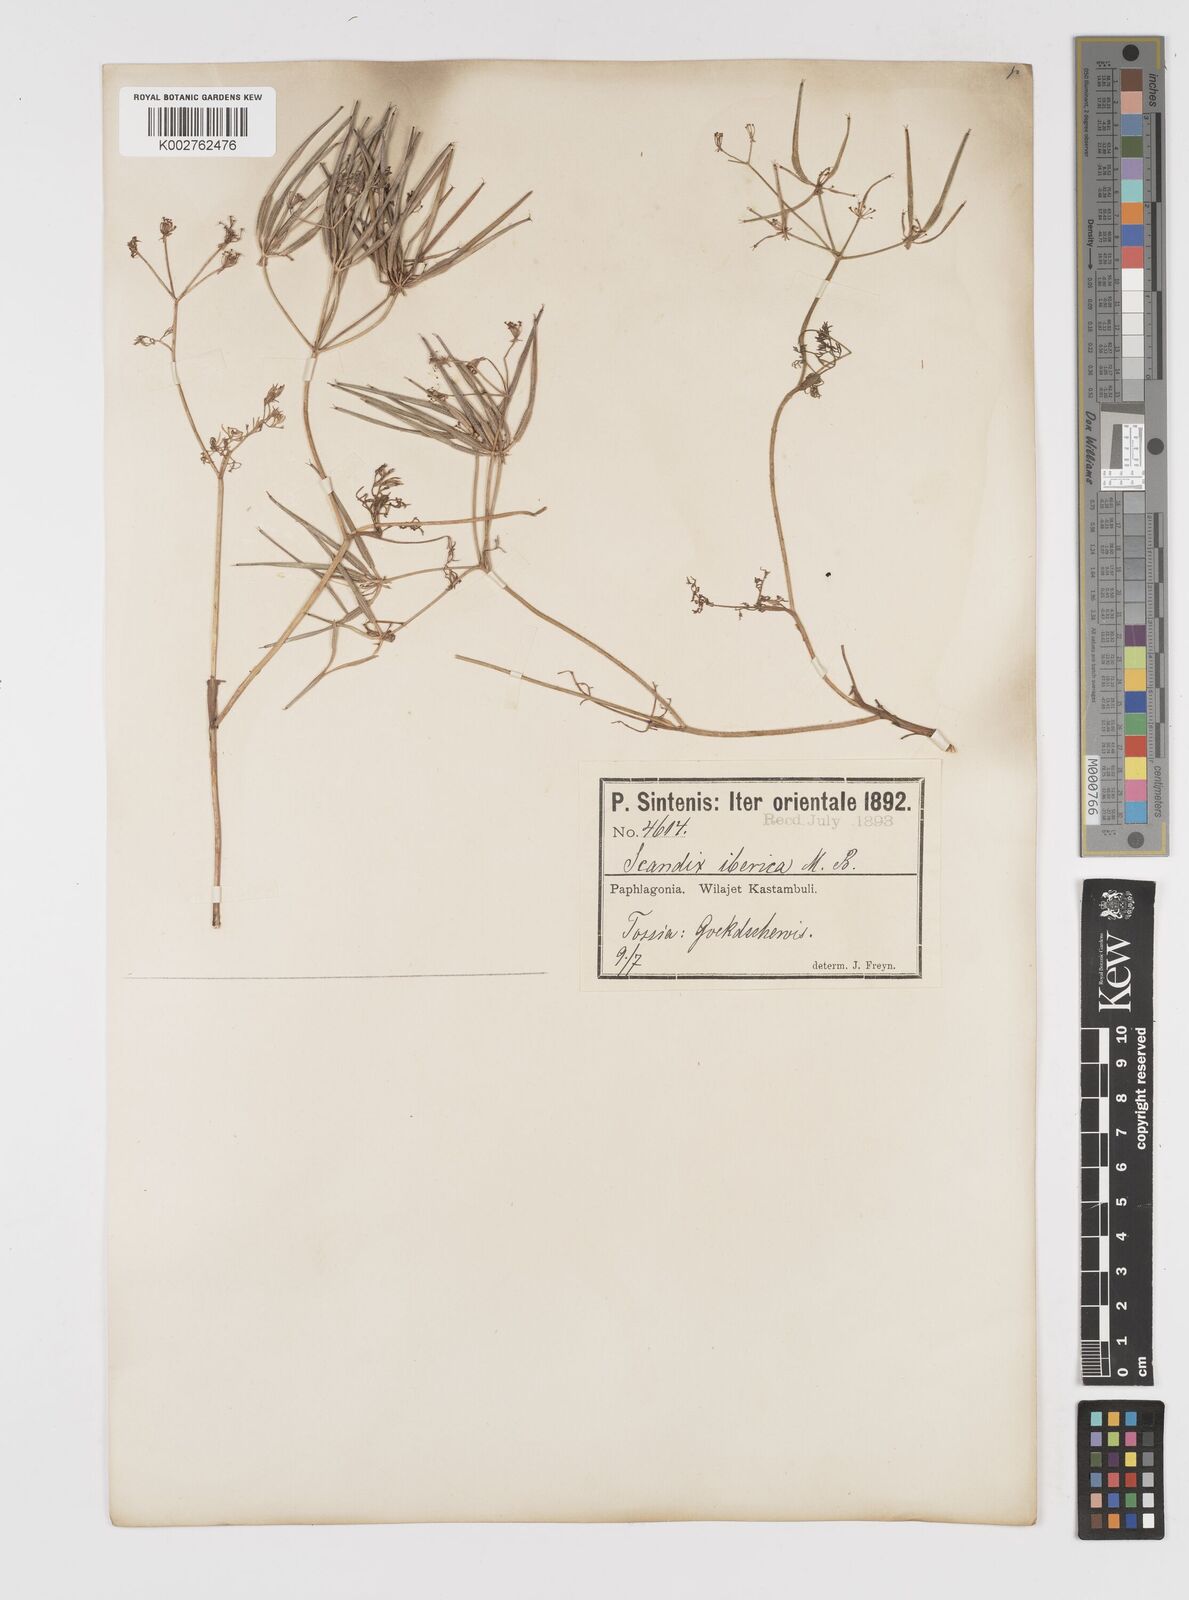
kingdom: Plantae
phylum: Tracheophyta
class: Magnoliopsida
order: Apiales
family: Apiaceae
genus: Scandix
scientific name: Scandix iberica
